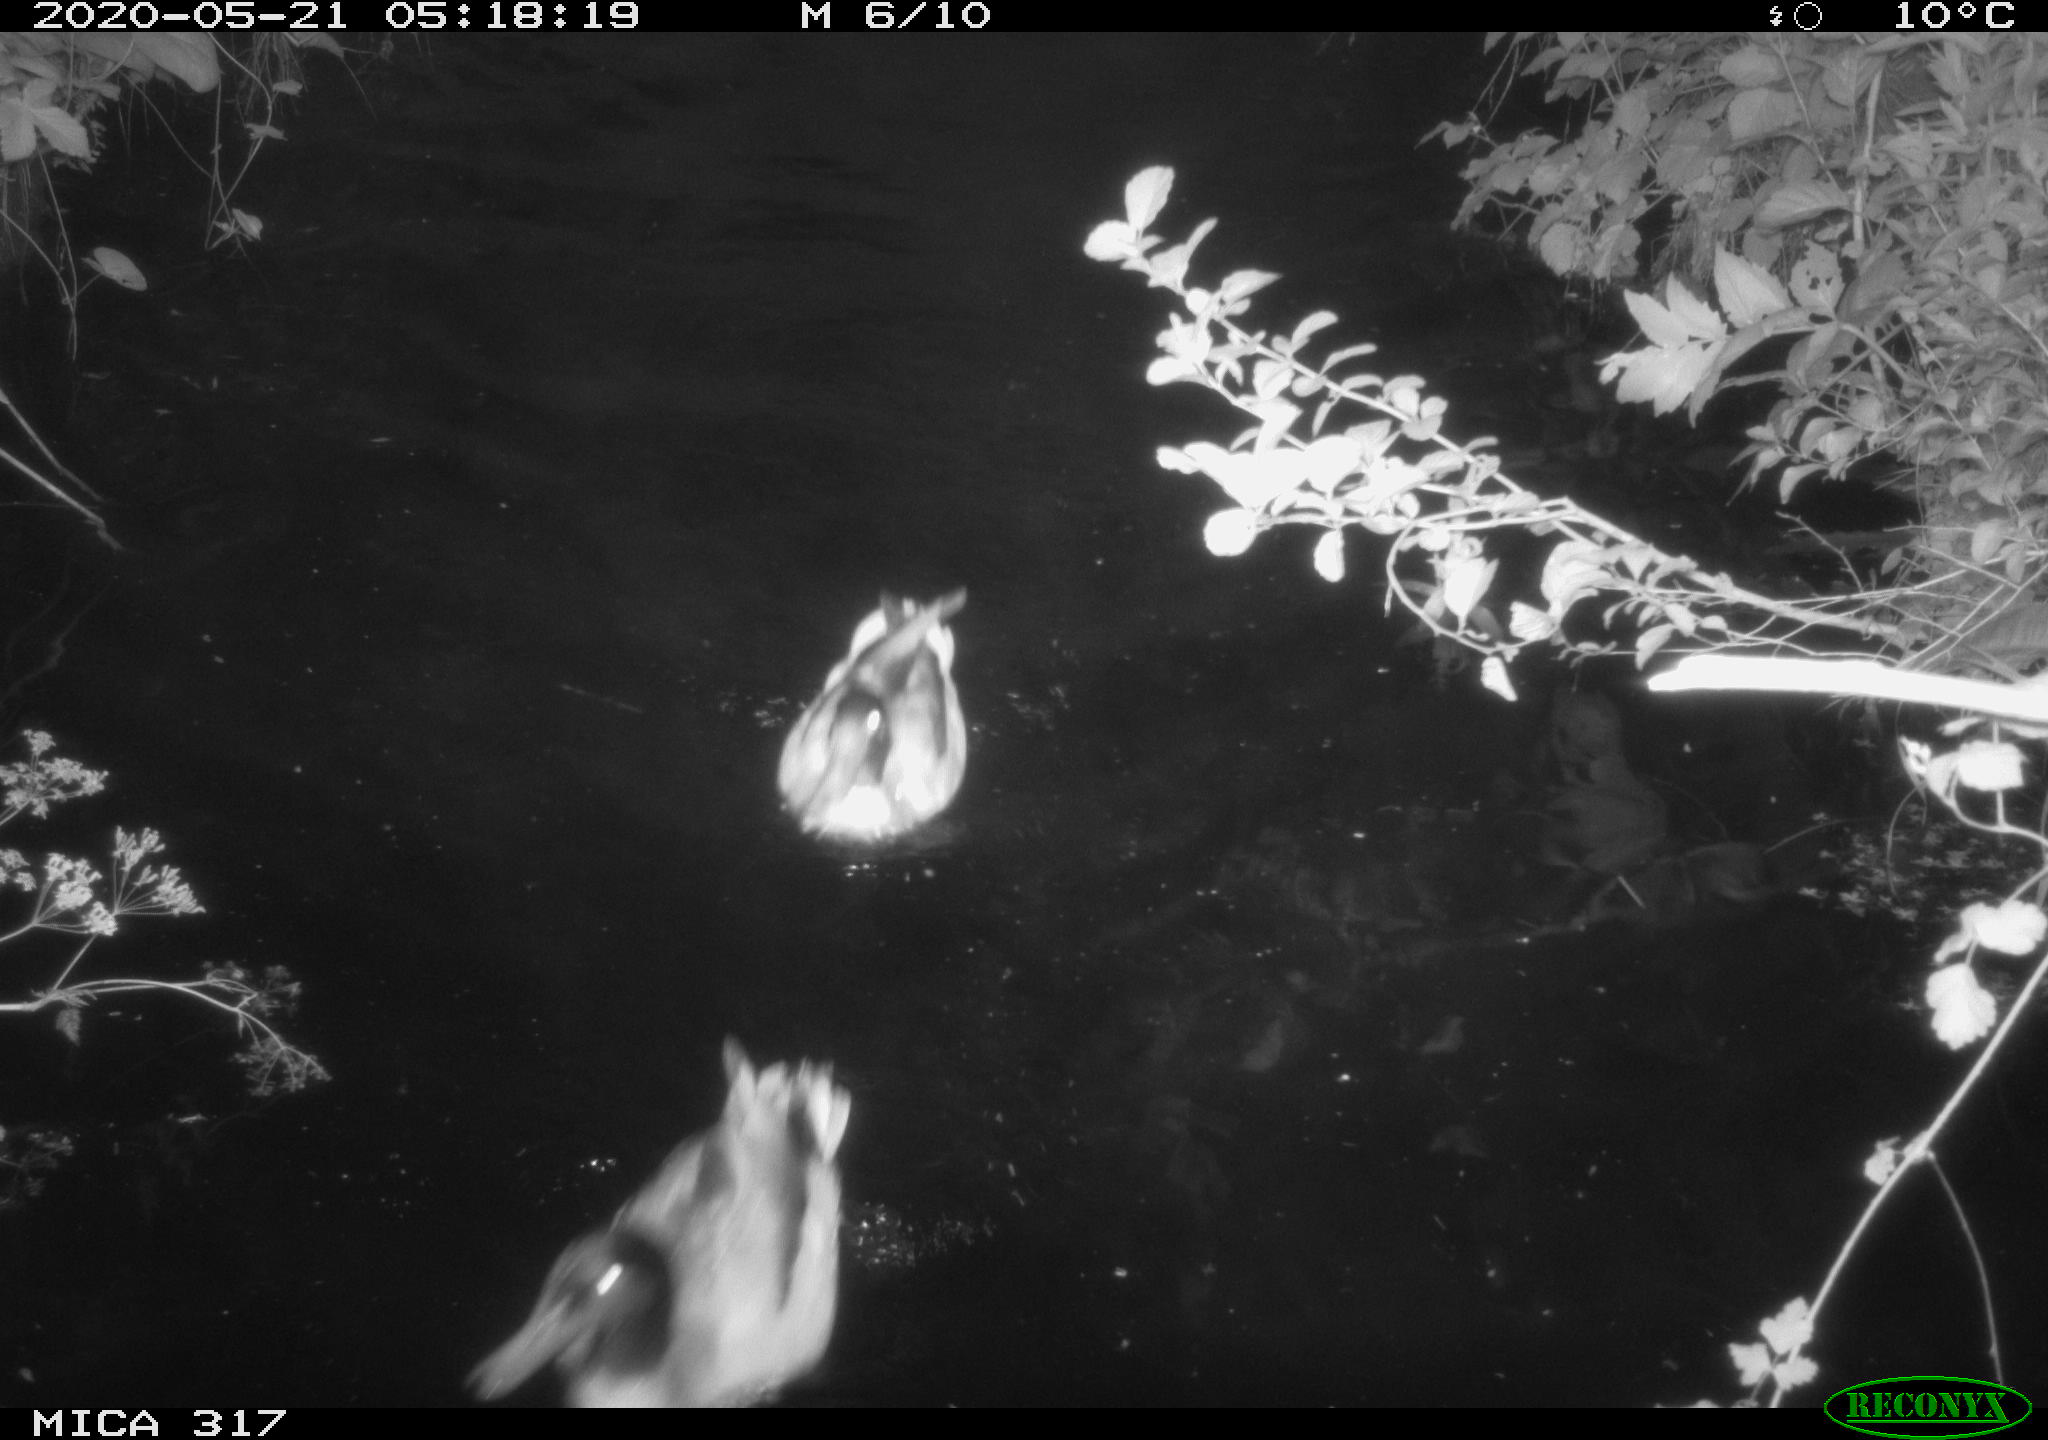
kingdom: Animalia
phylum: Chordata
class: Aves
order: Anseriformes
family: Anatidae
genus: Anas
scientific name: Anas platyrhynchos
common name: Mallard
